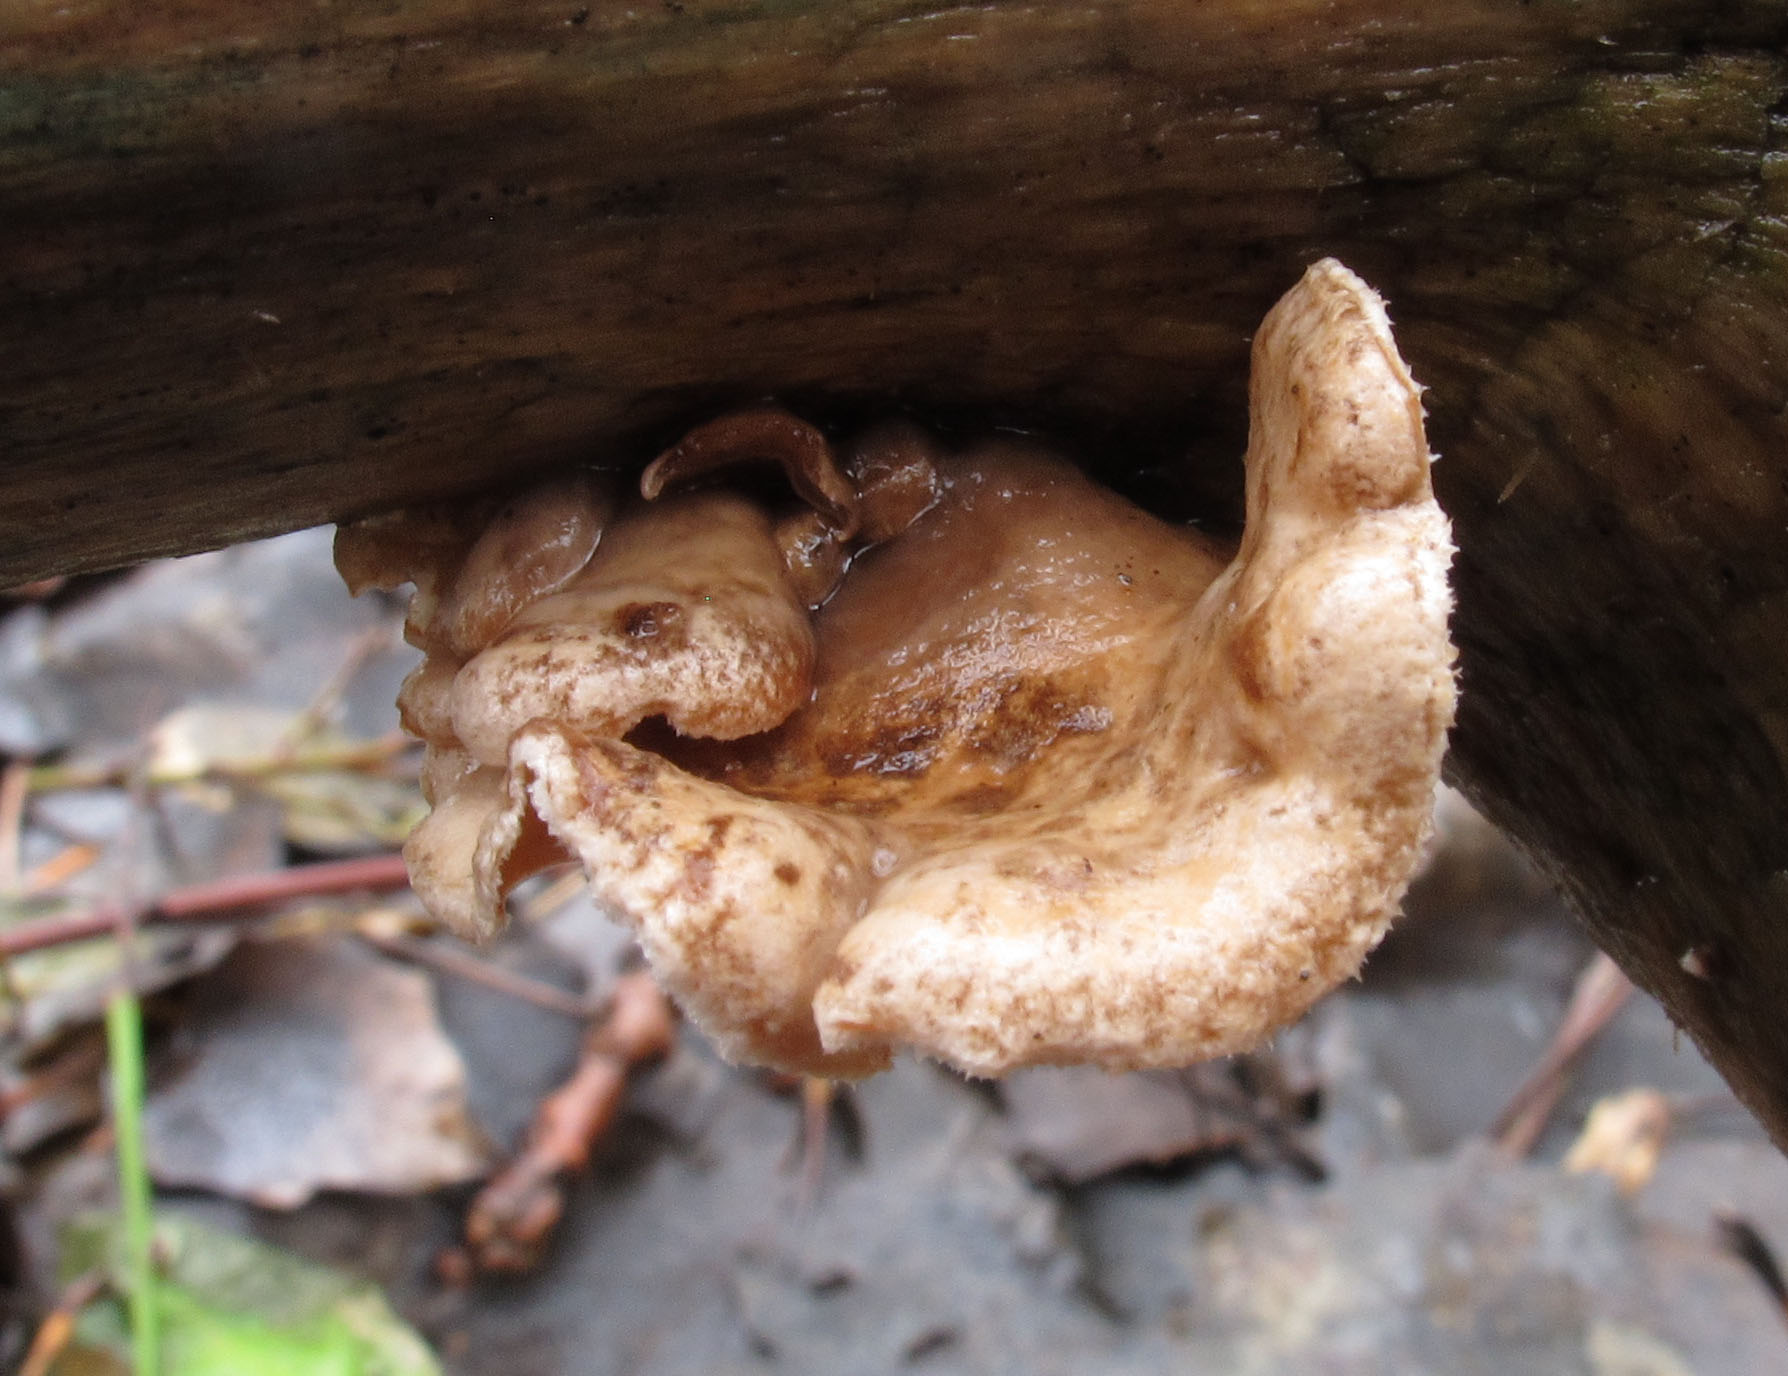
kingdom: Fungi
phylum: Basidiomycota
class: Agaricomycetes
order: Agaricales
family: Schizophyllaceae
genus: Schizophyllum
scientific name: Schizophyllum amplum
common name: poppel-hængeøre
